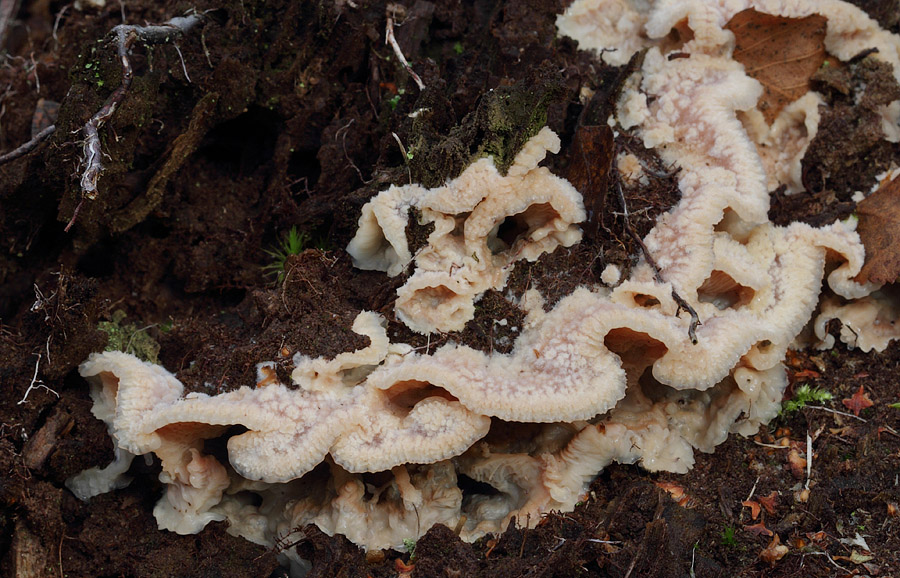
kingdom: Fungi
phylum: Basidiomycota
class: Agaricomycetes
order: Polyporales
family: Meruliaceae
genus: Phlebia
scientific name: Phlebia tremellosa
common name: bævrende åresvamp
